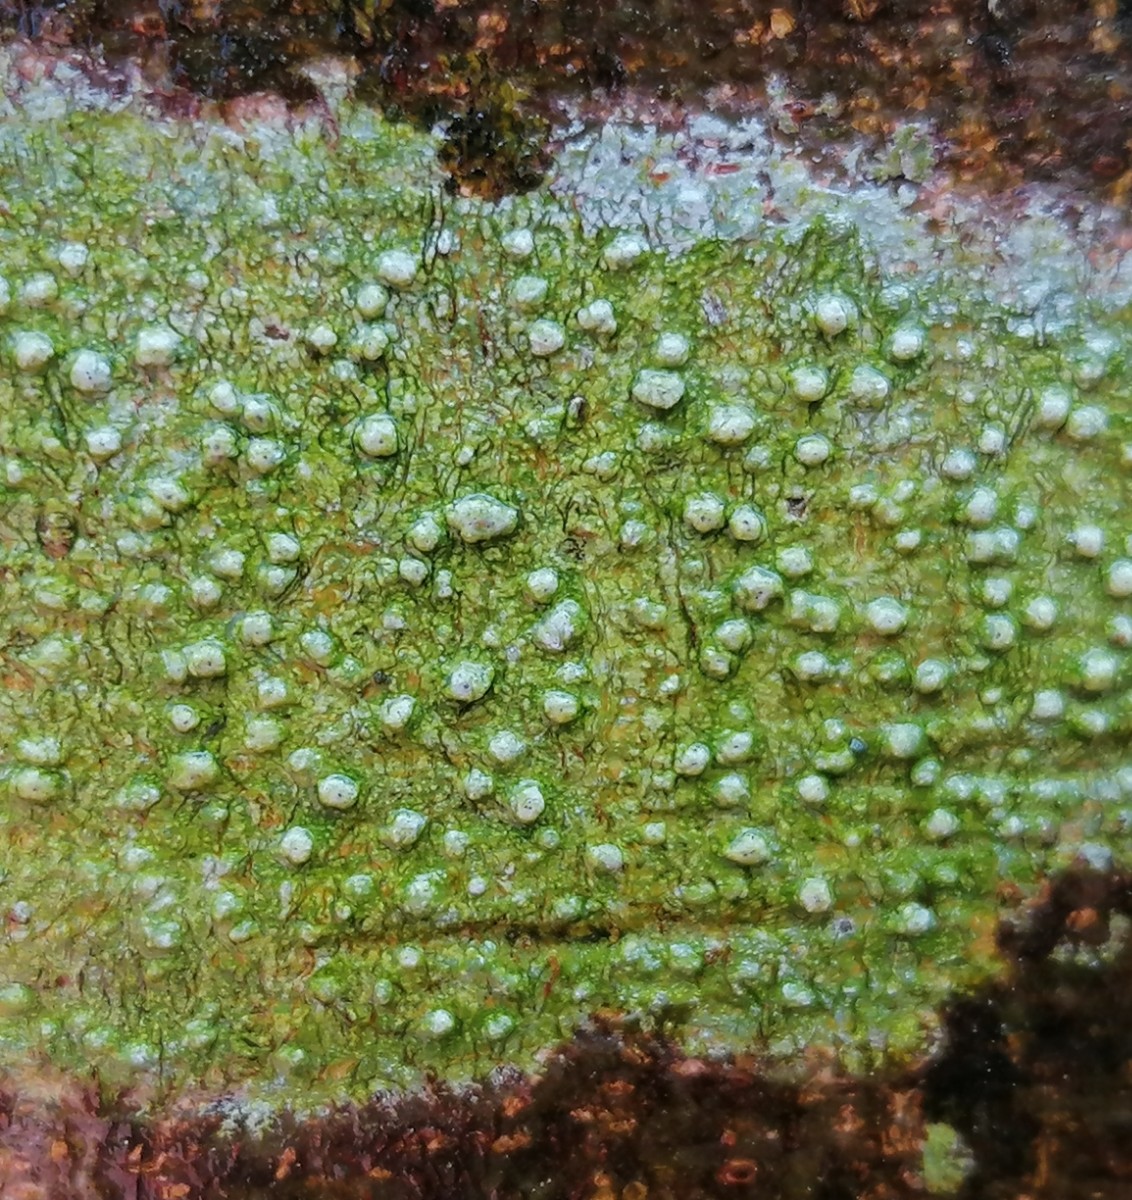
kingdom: Fungi
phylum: Ascomycota
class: Lecanoromycetes
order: Pertusariales
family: Pertusariaceae
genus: Pertusaria
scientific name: Pertusaria leioplaca
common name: tynd prikvortelav
